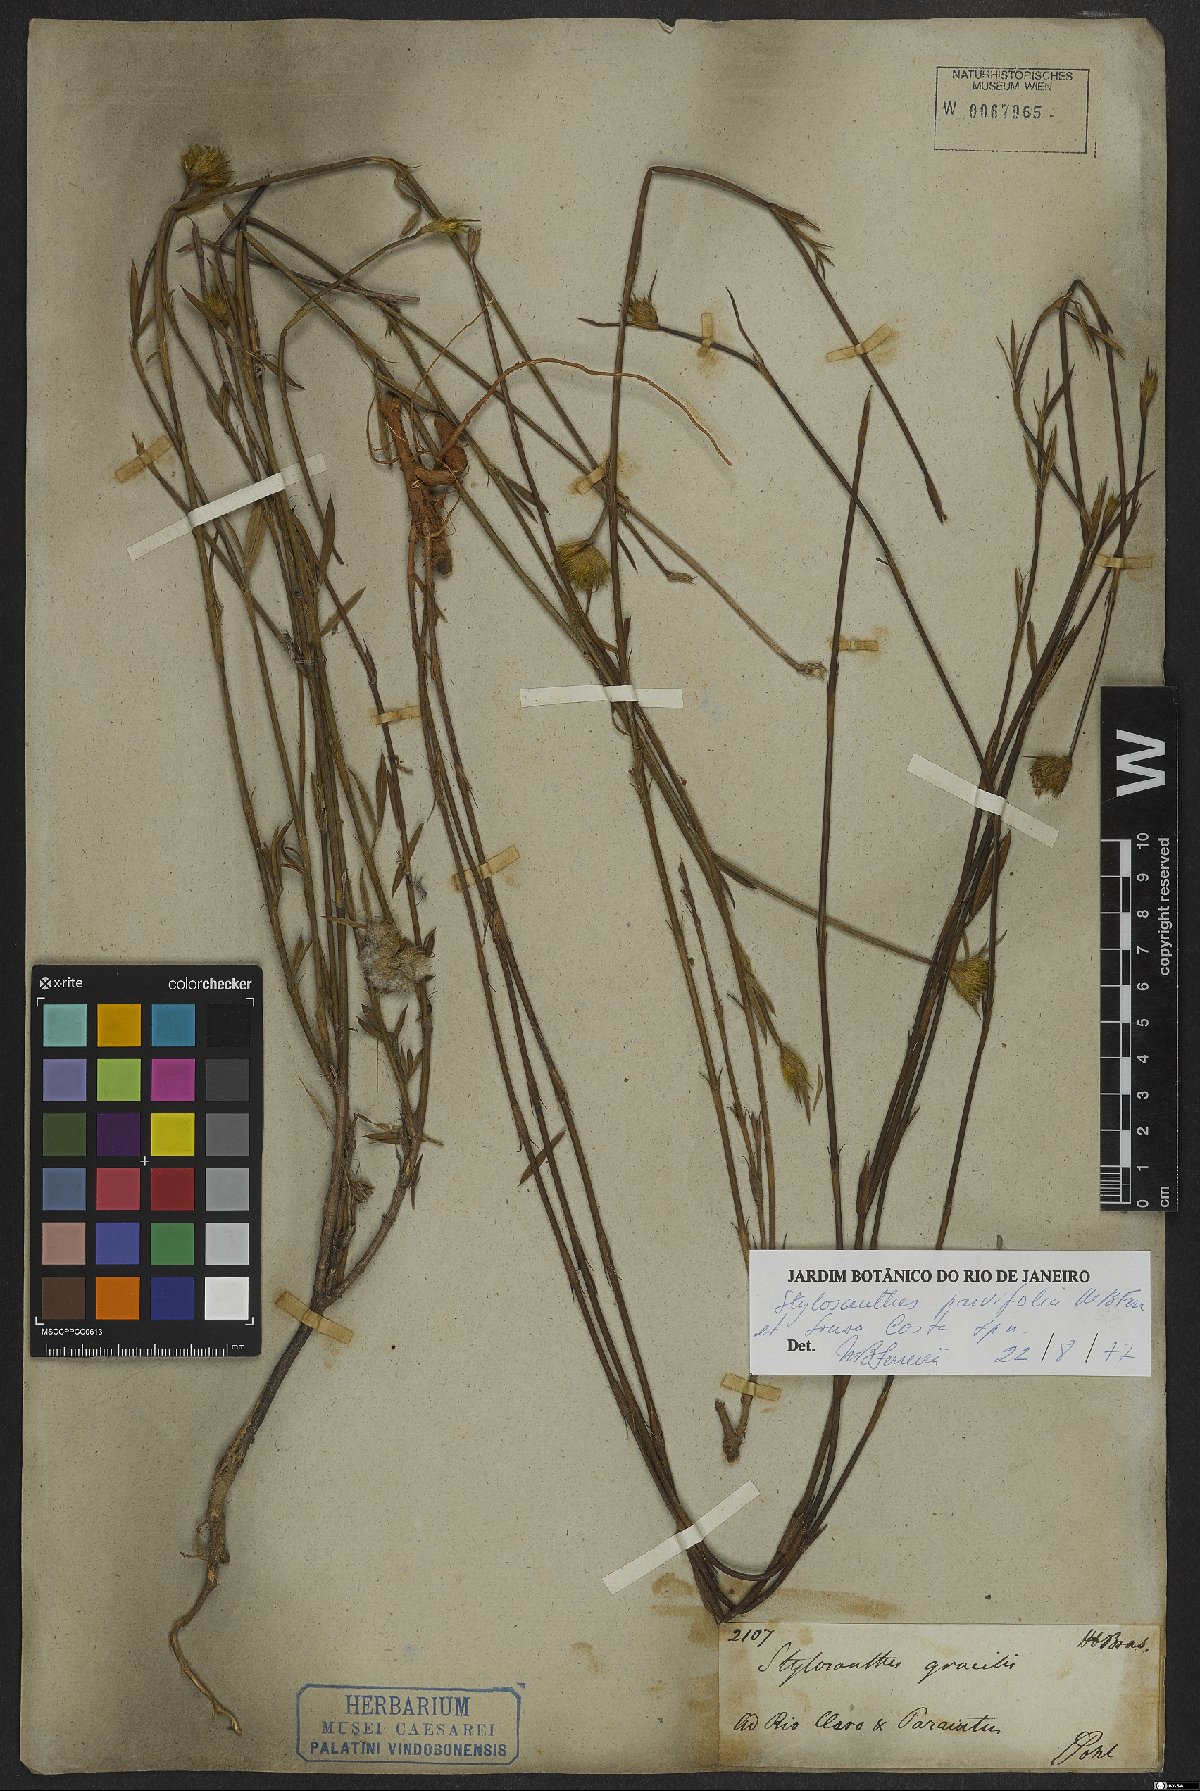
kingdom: Plantae
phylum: Tracheophyta
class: Magnoliopsida
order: Fabales
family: Fabaceae
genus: Stylosanthes
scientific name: Stylosanthes
